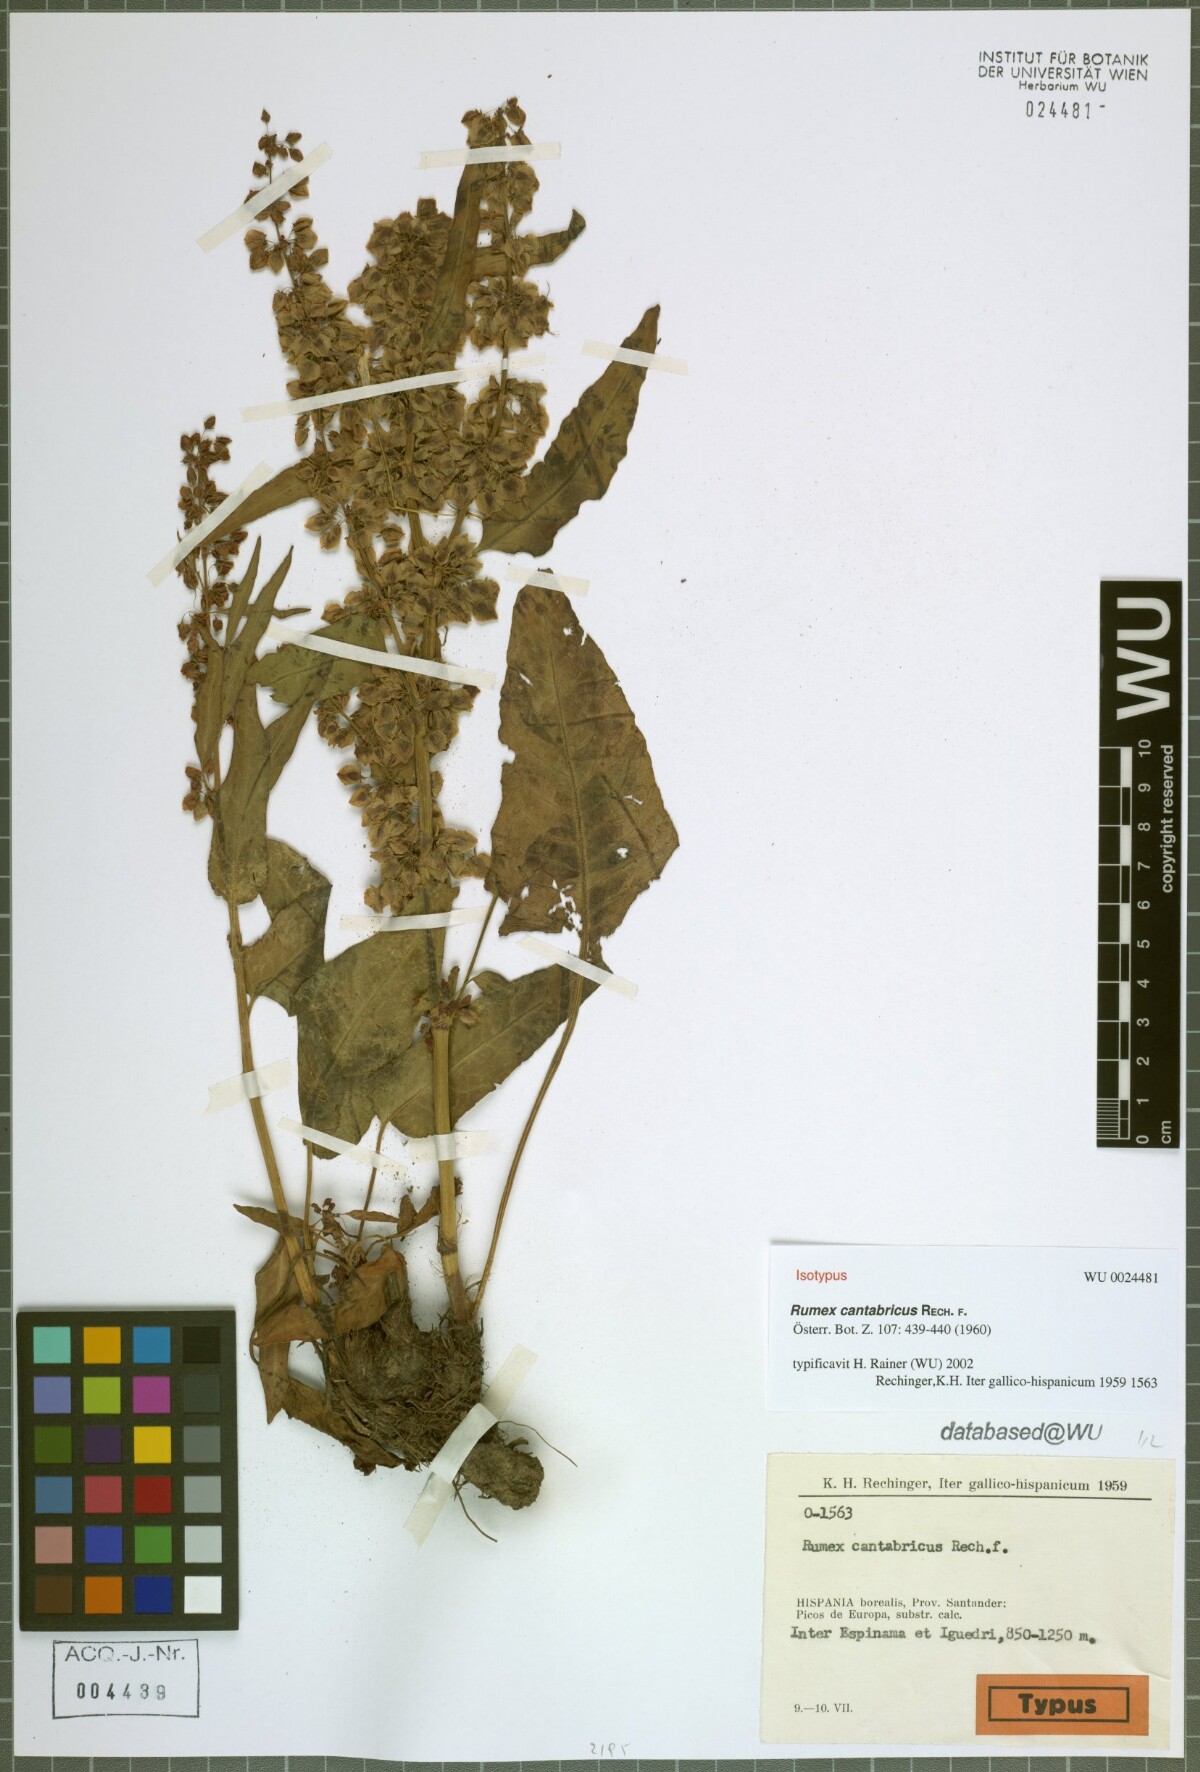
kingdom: Plantae
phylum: Tracheophyta
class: Magnoliopsida
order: Caryophyllales
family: Polygonaceae
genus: Rumex
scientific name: Rumex aquitanicus
